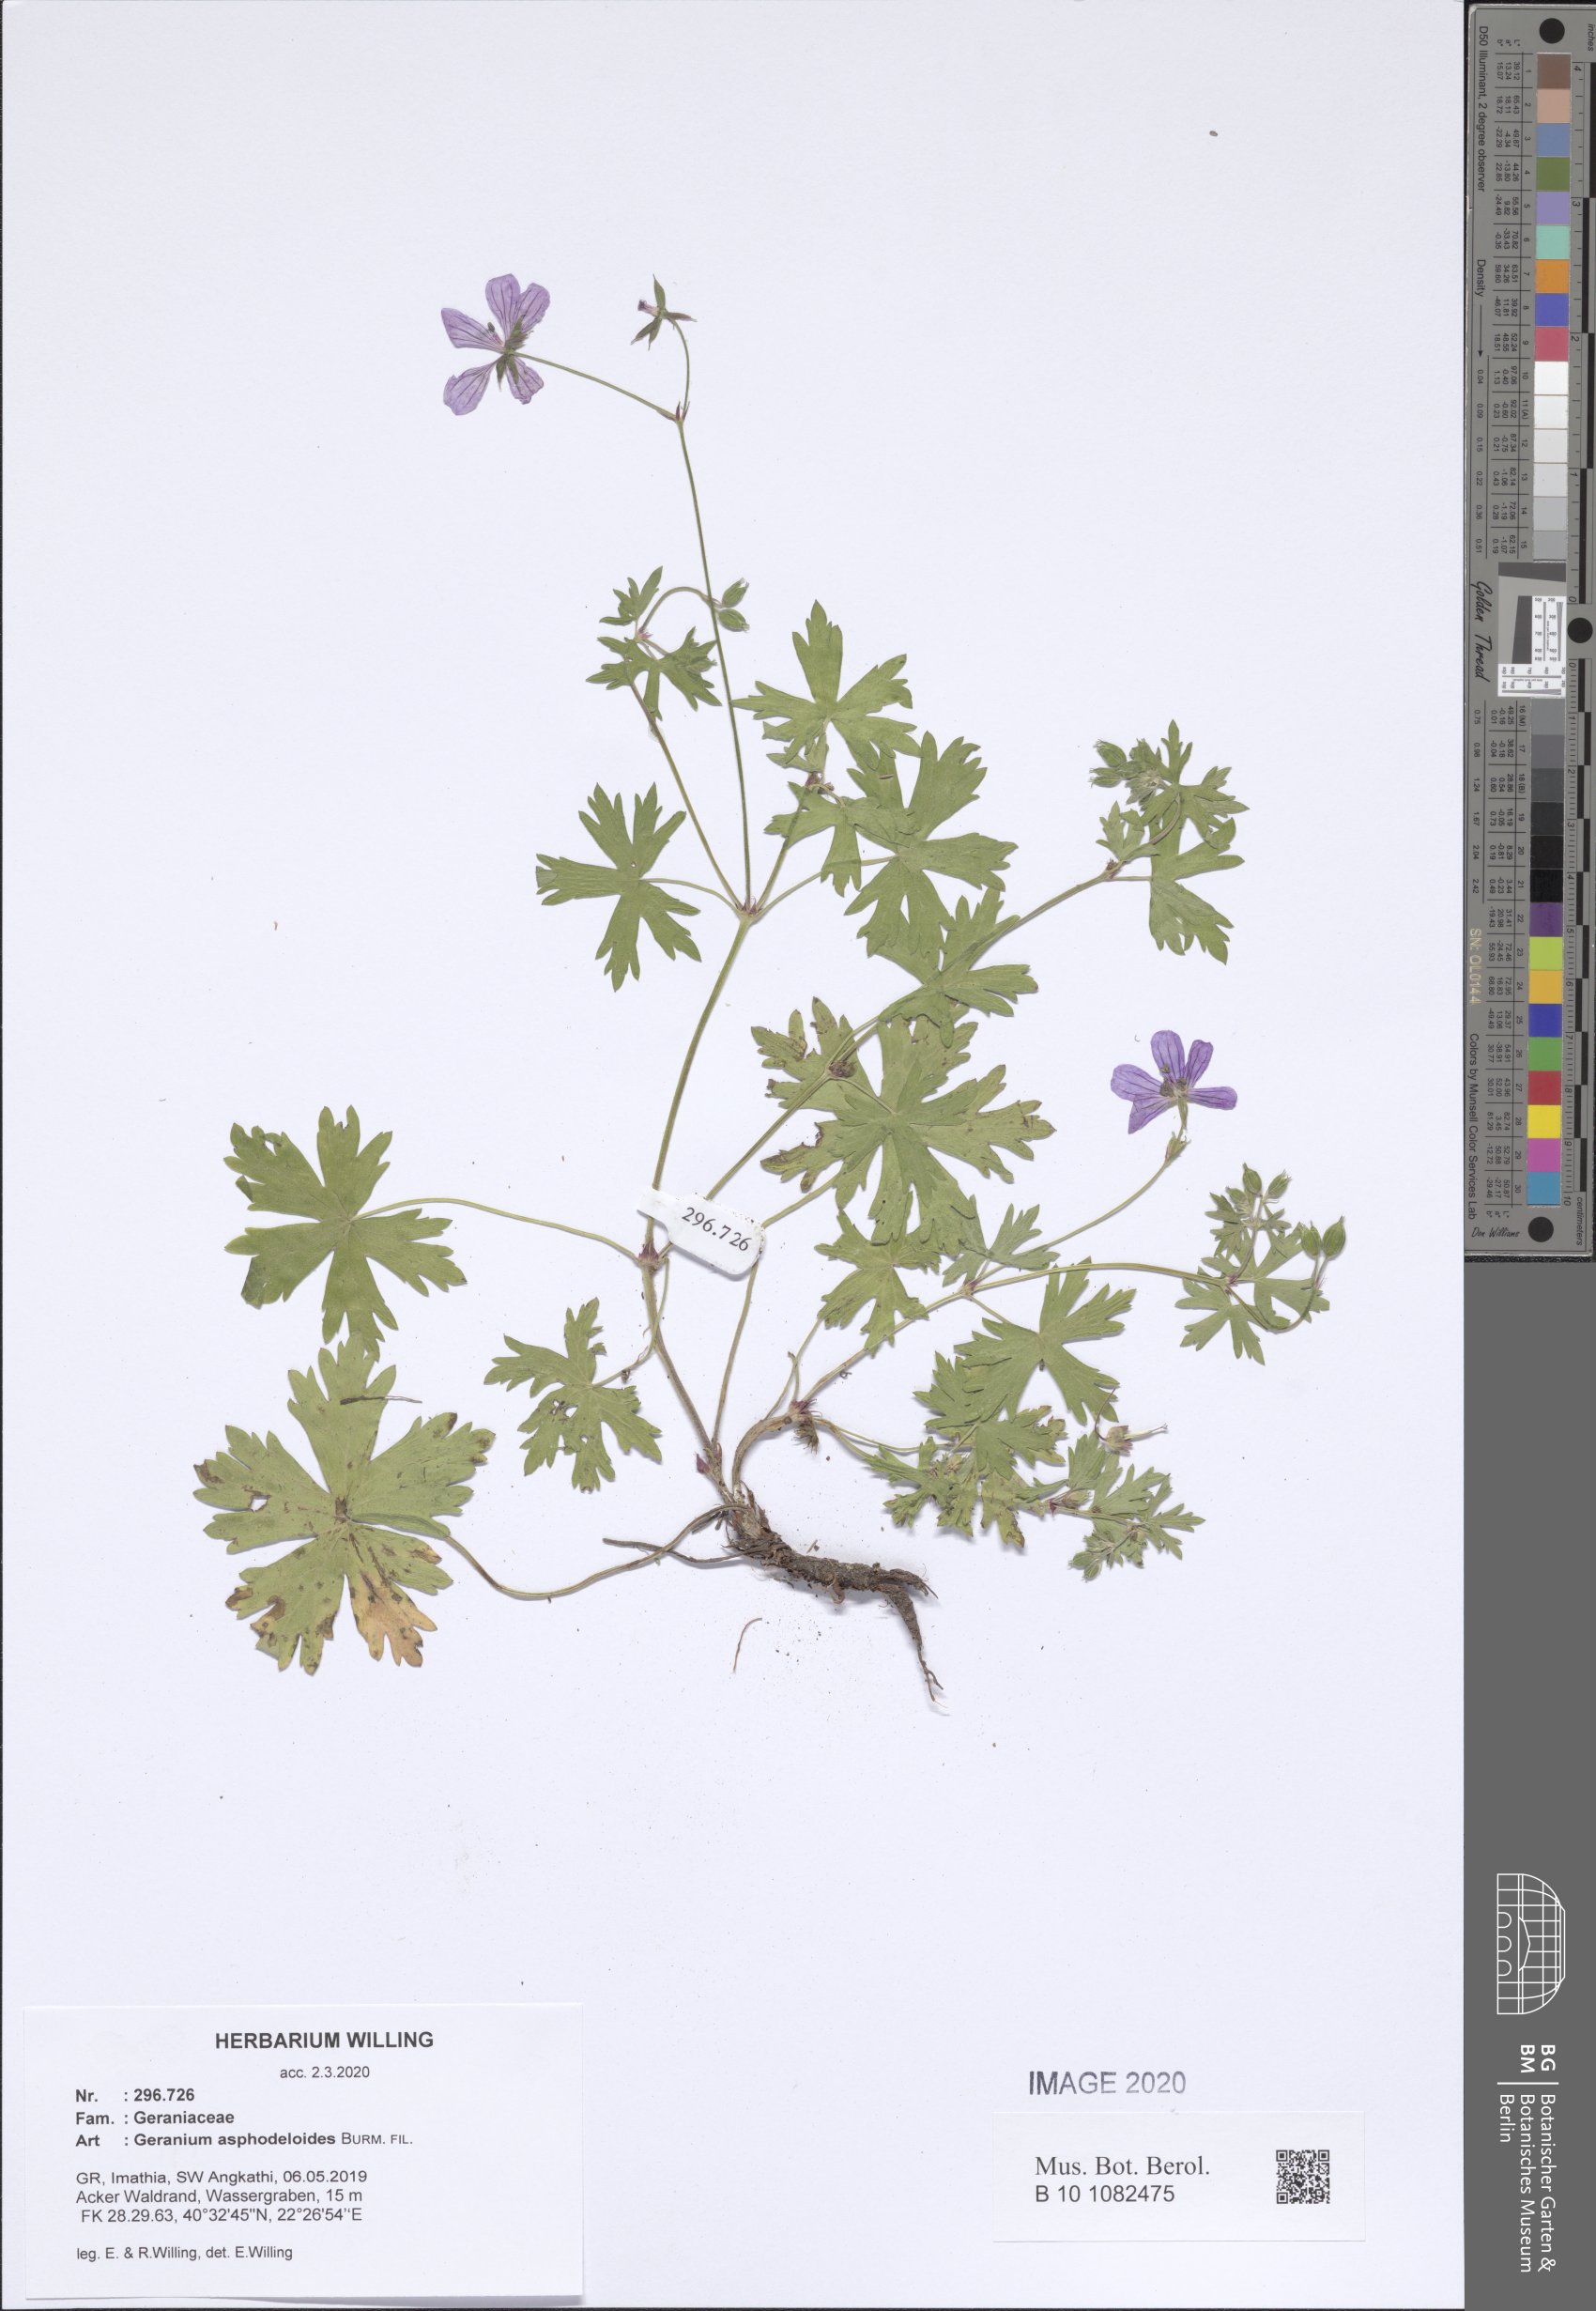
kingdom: Plantae
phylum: Tracheophyta
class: Magnoliopsida
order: Geraniales
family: Geraniaceae
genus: Geranium
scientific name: Geranium asphodeloides
